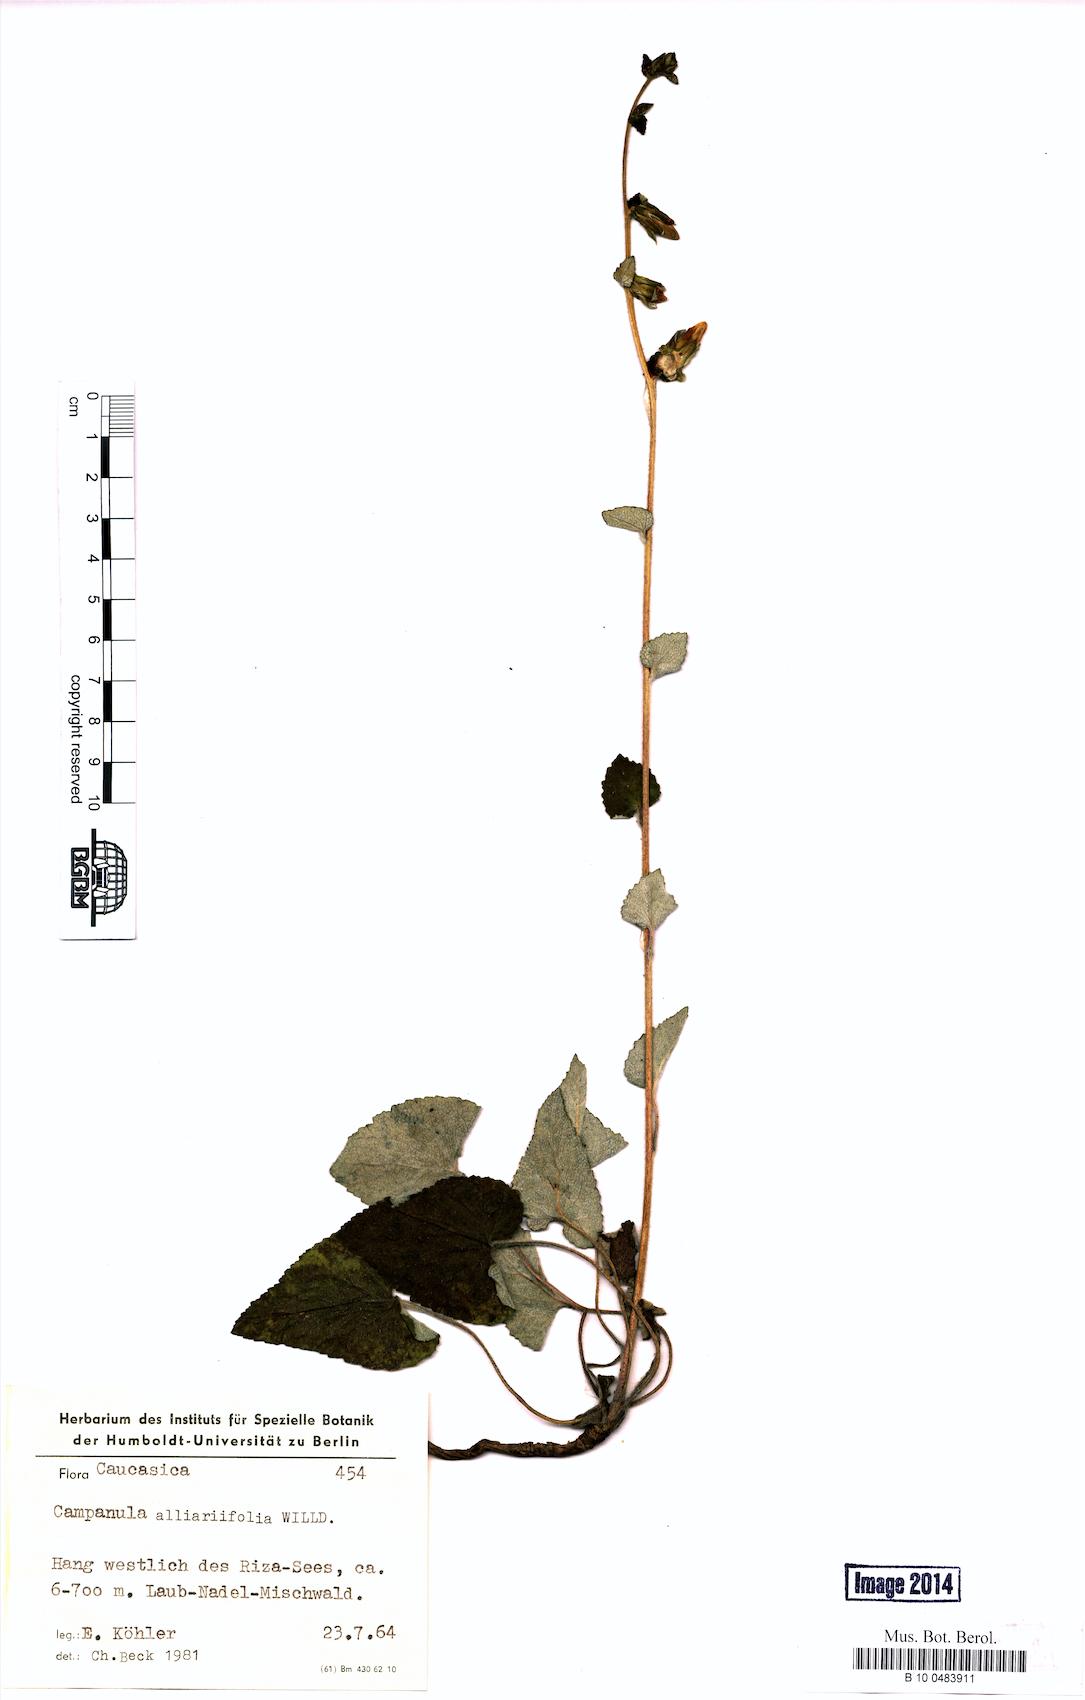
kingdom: Plantae
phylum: Tracheophyta
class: Magnoliopsida
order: Asterales
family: Campanulaceae
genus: Campanula
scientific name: Campanula alliariifolia
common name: Cornish bellflower
